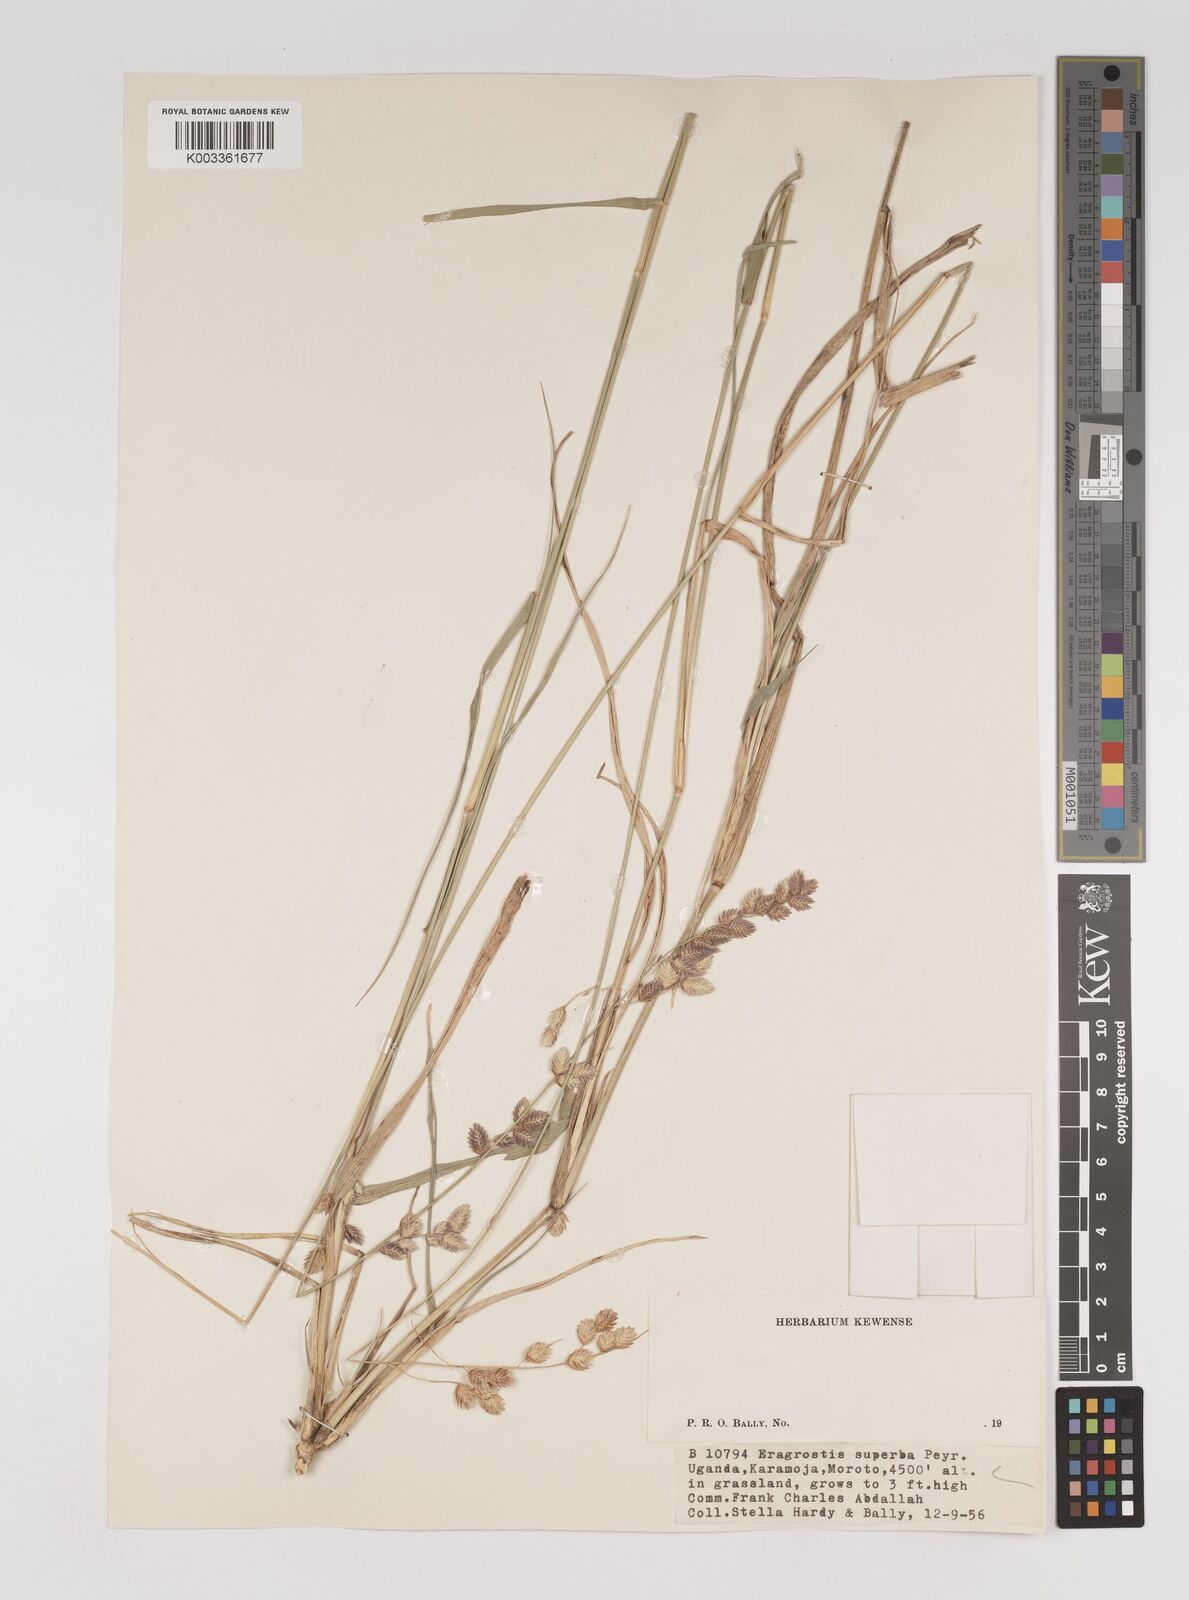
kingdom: Plantae
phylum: Tracheophyta
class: Liliopsida
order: Poales
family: Poaceae
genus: Eragrostis
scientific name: Eragrostis superba
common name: Wilman lovegrass
